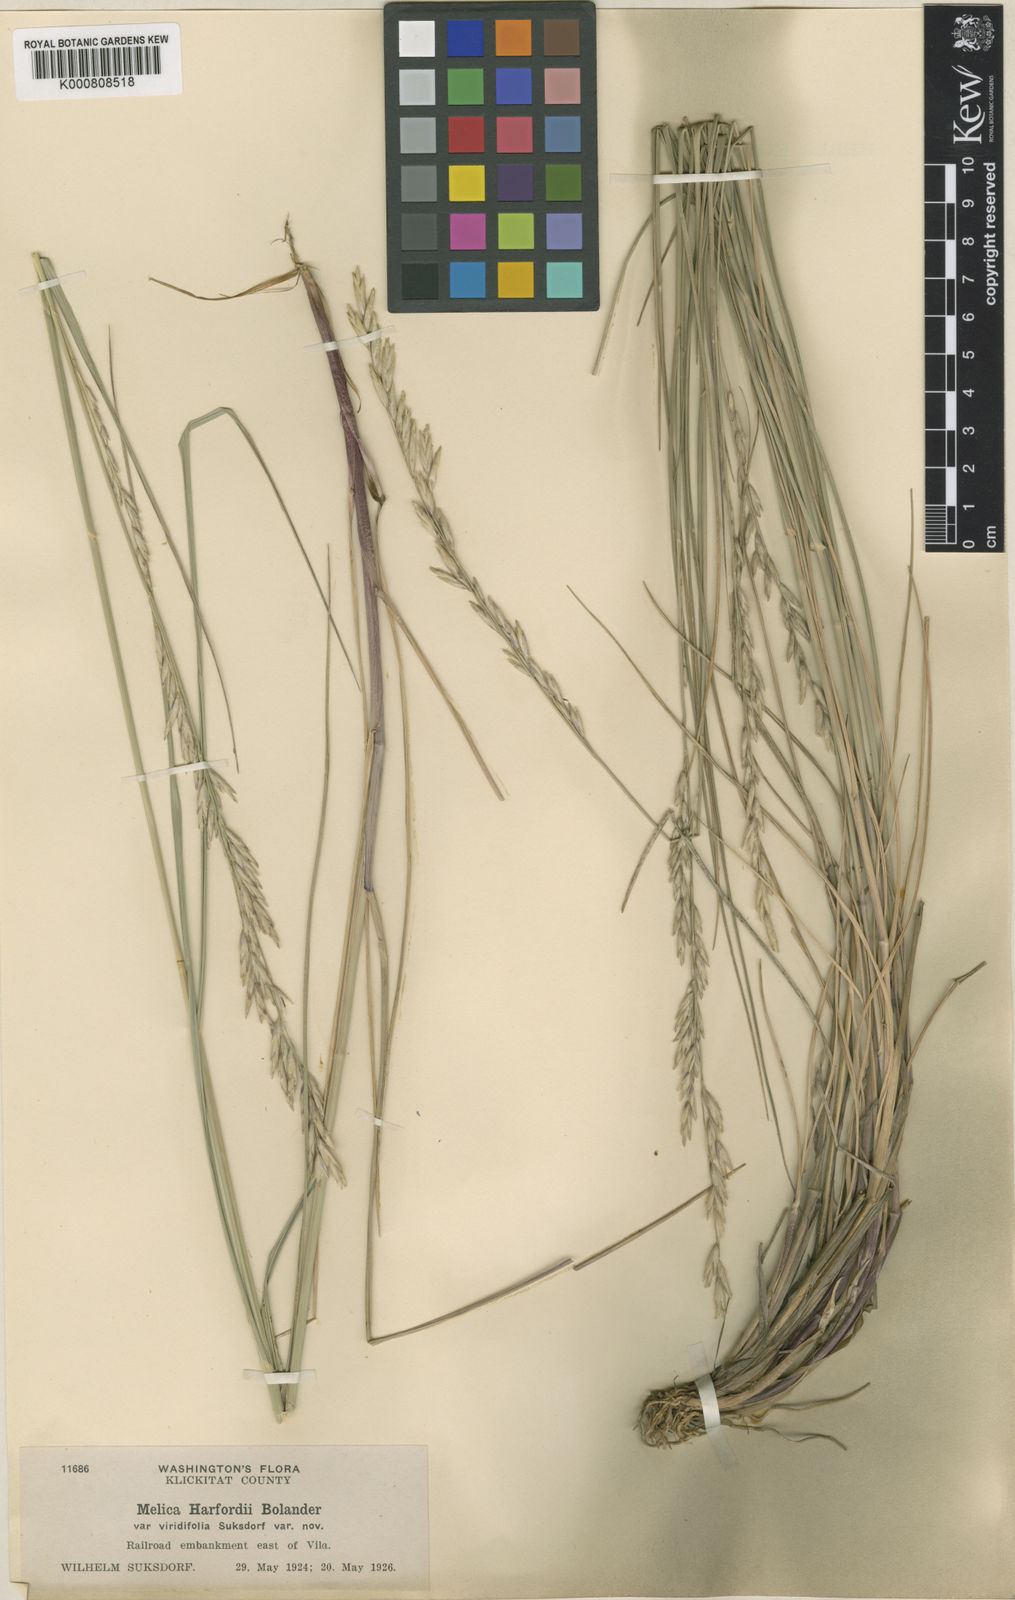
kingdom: Plantae
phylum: Tracheophyta
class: Liliopsida
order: Poales
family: Poaceae
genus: Melica
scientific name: Melica harfordii
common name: Harford's melic
